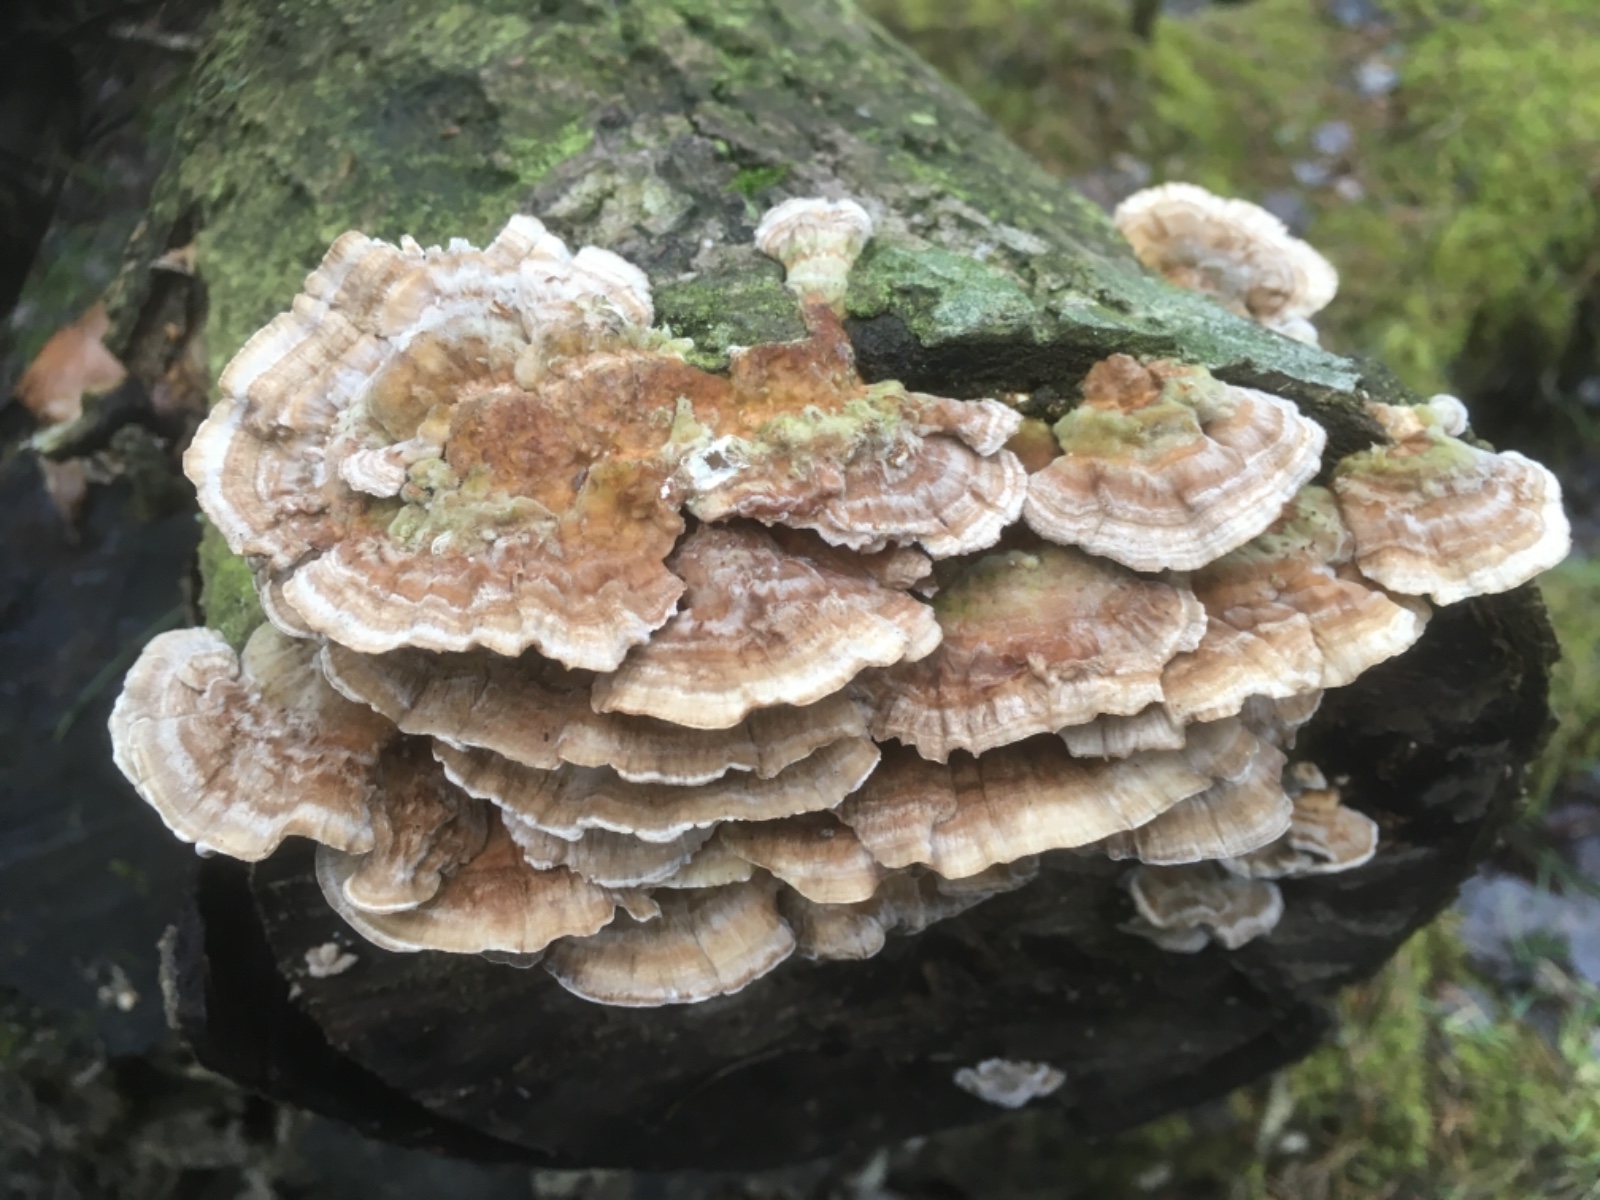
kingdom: Fungi
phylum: Basidiomycota
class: Agaricomycetes
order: Polyporales
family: Polyporaceae
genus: Trametes
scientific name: Trametes ochracea
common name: bæltet læderporesvamp
